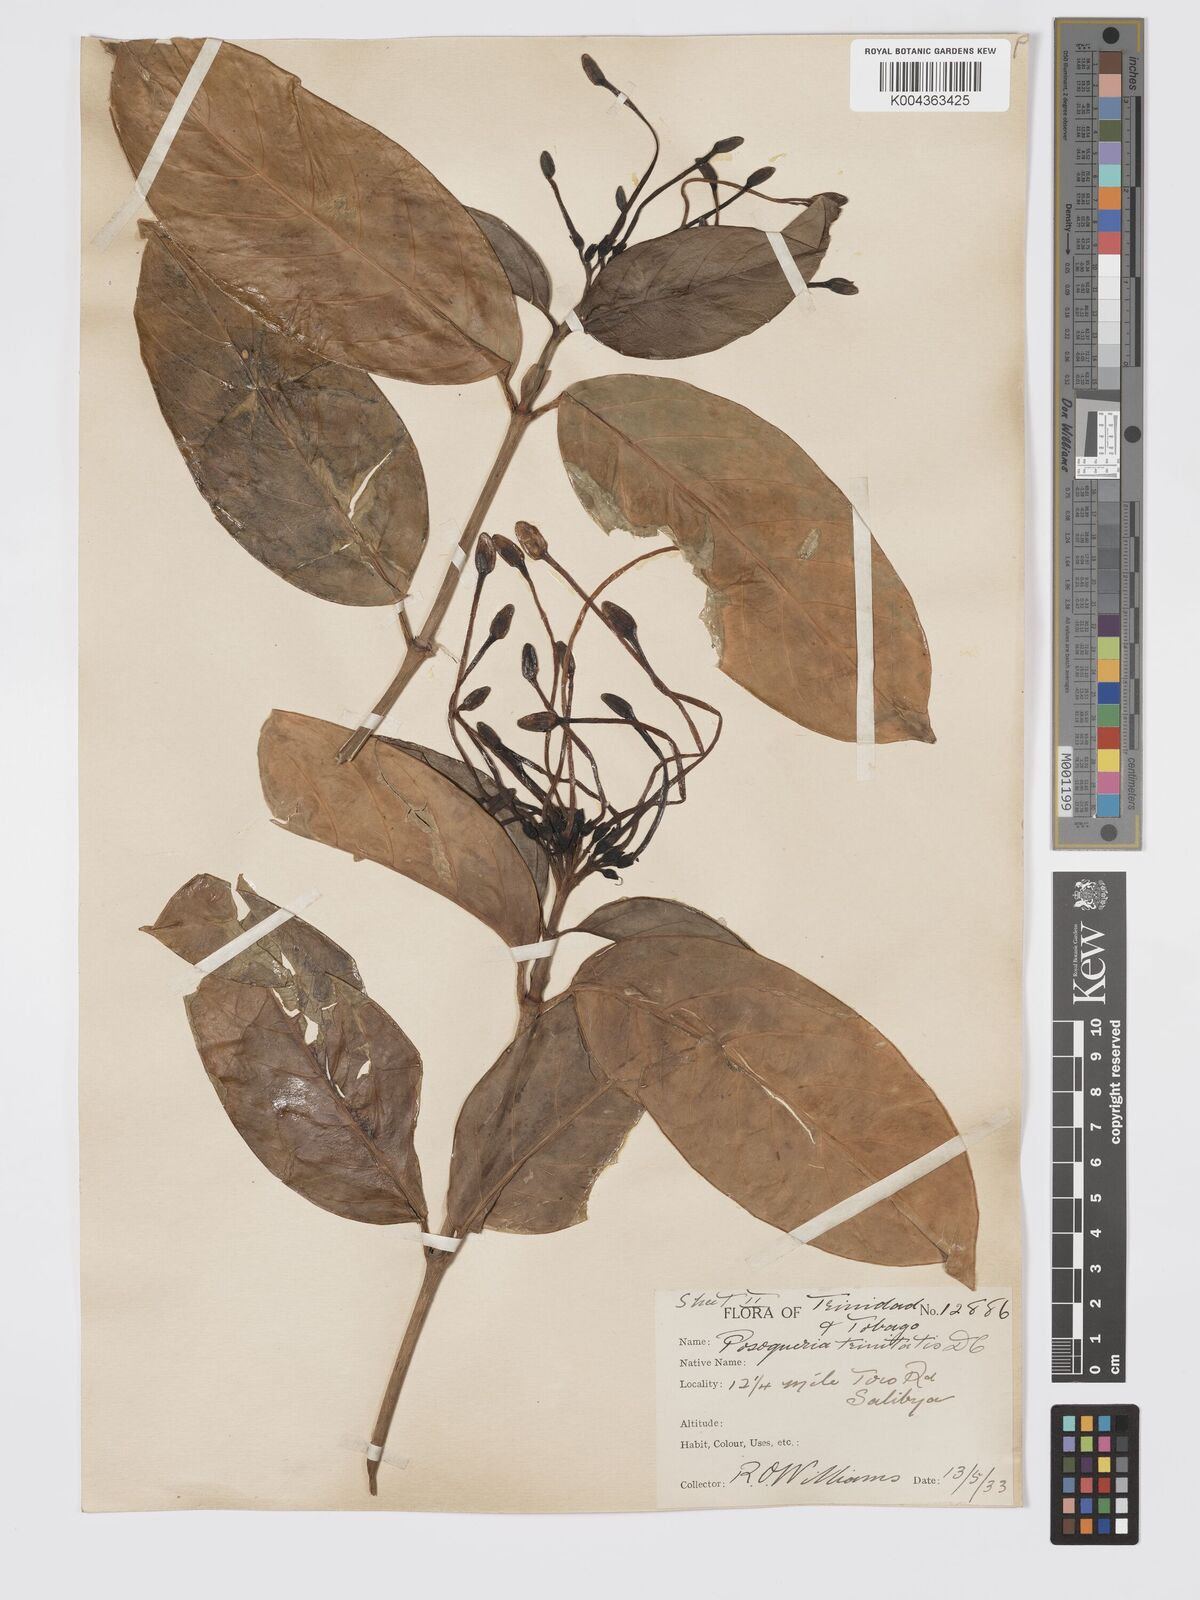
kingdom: Plantae
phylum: Tracheophyta
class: Magnoliopsida
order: Gentianales
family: Rubiaceae
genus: Posoqueria
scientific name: Posoqueria trinitatis
